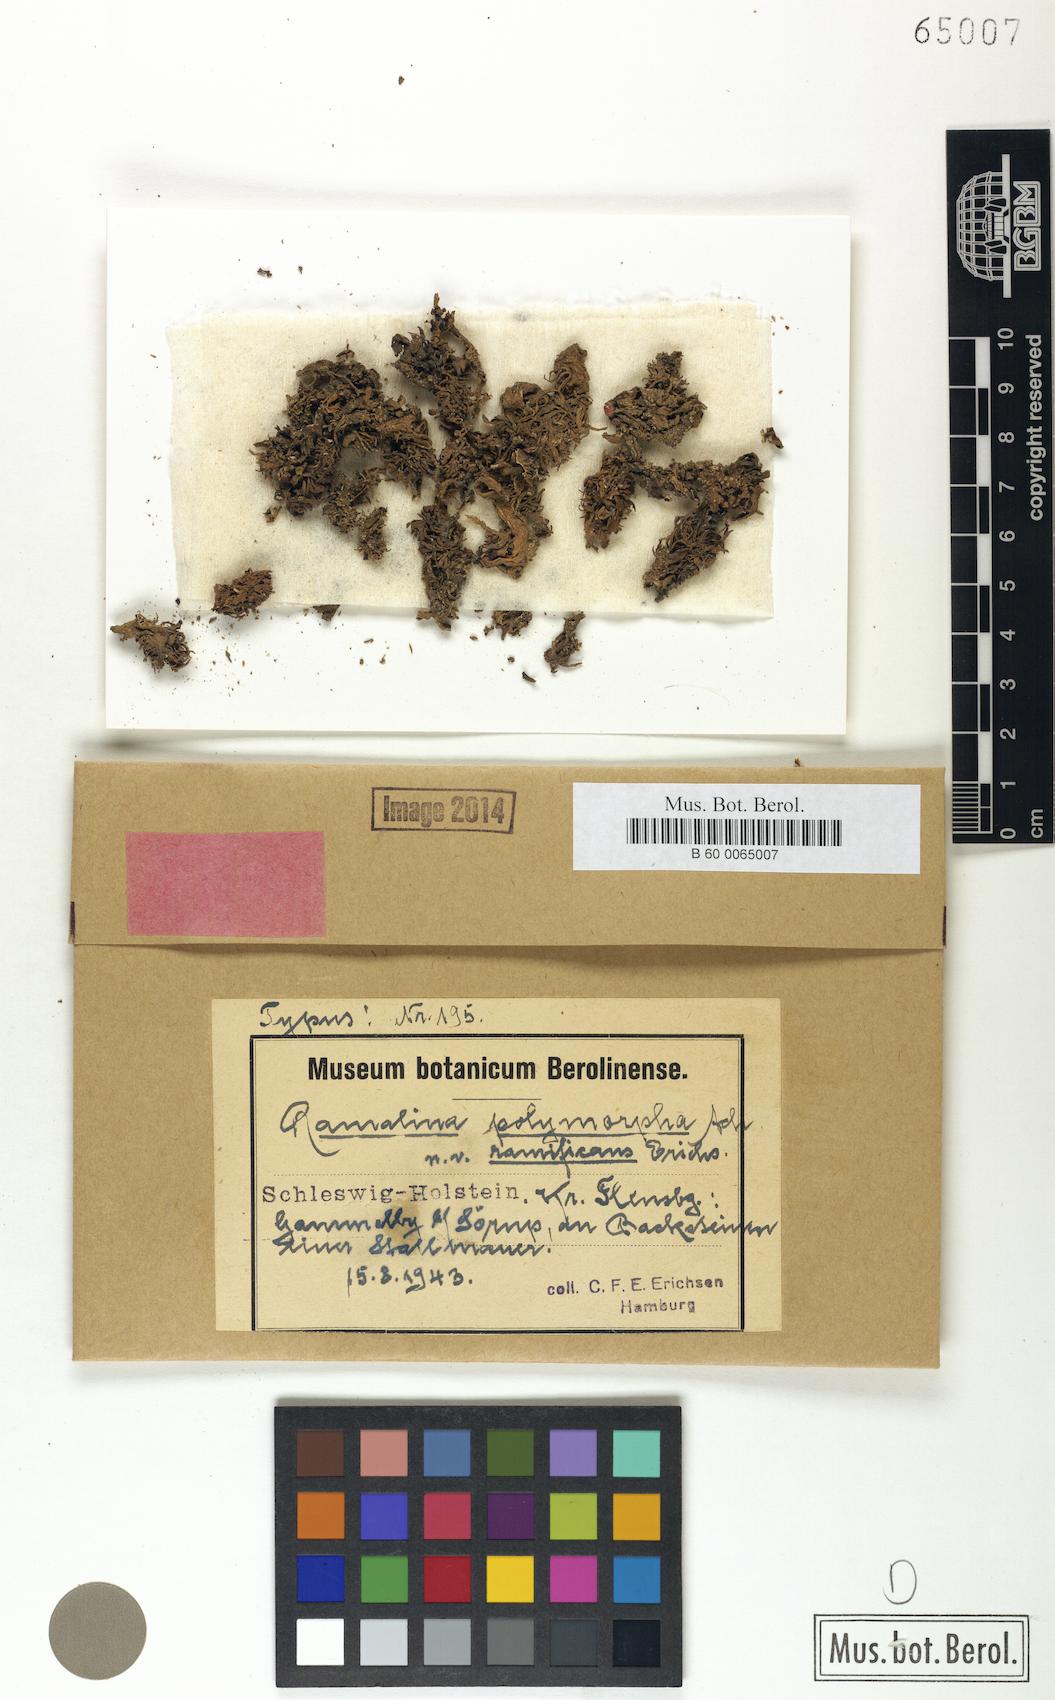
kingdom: Fungi
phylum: Ascomycota
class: Lecanoromycetes
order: Lecanorales
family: Ramalinaceae
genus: Ramalina
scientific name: Ramalina polymorpha
